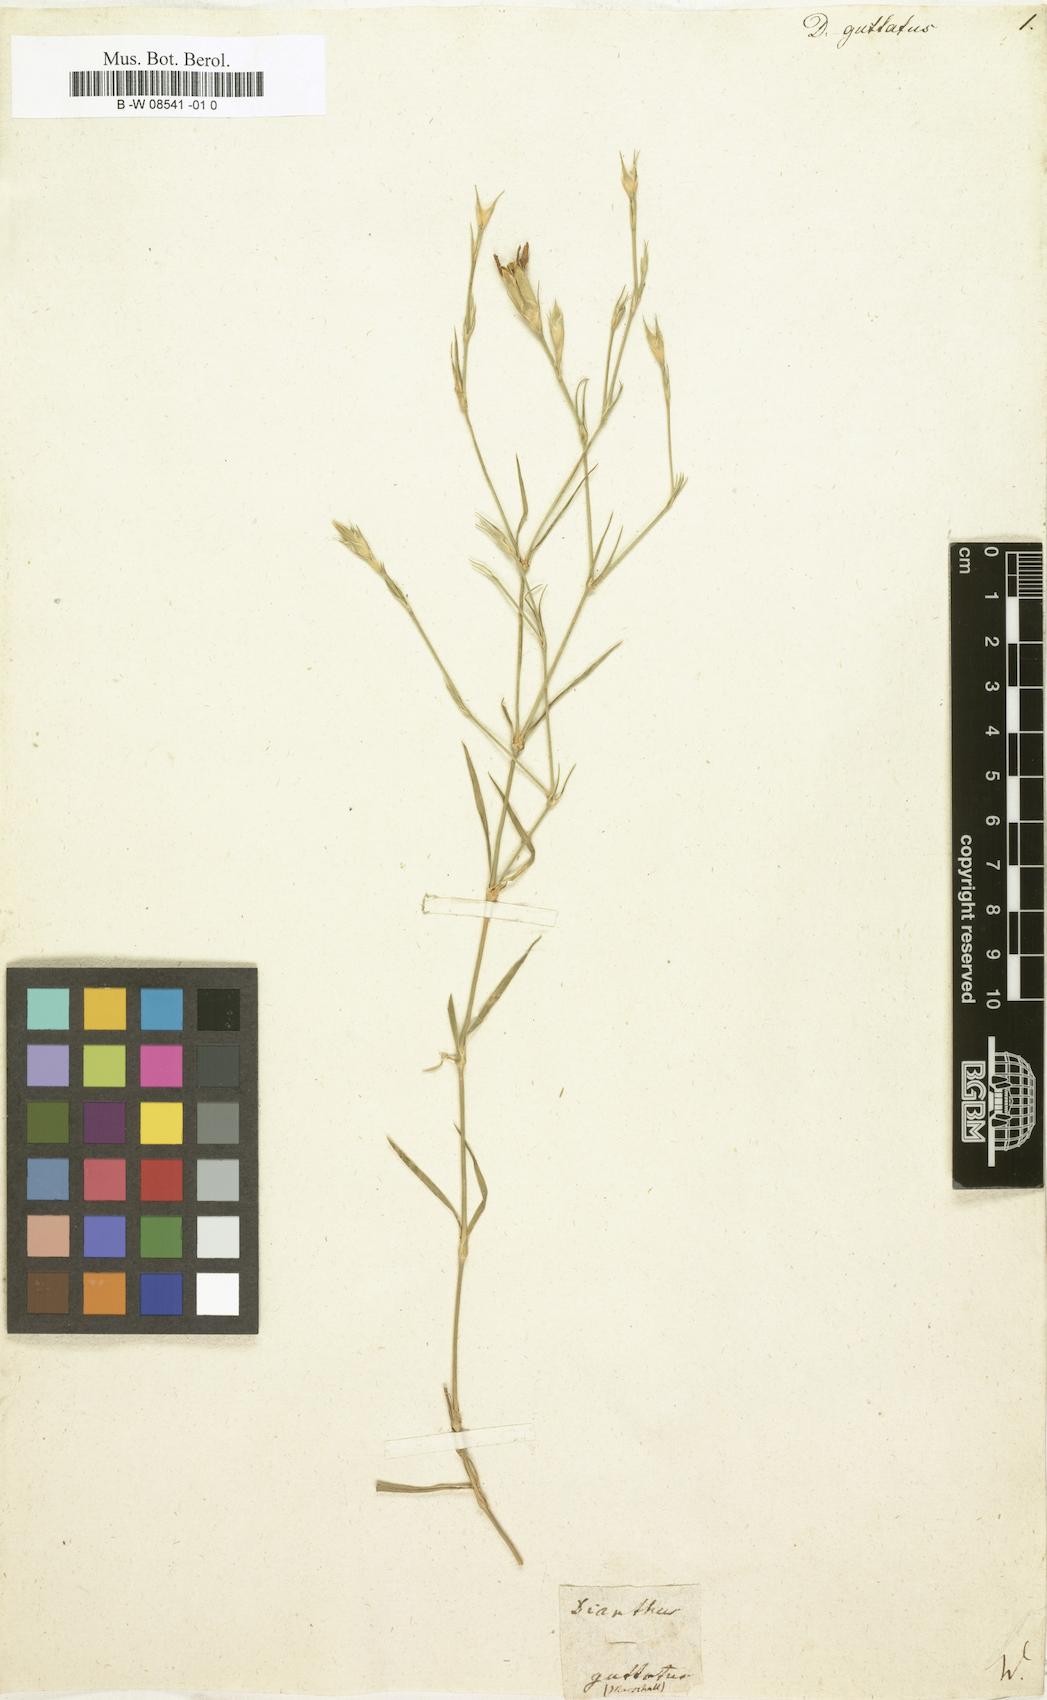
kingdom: Plantae
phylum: Tracheophyta
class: Magnoliopsida
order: Caryophyllales
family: Caryophyllaceae
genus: Dianthus
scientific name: Dianthus guttatus
